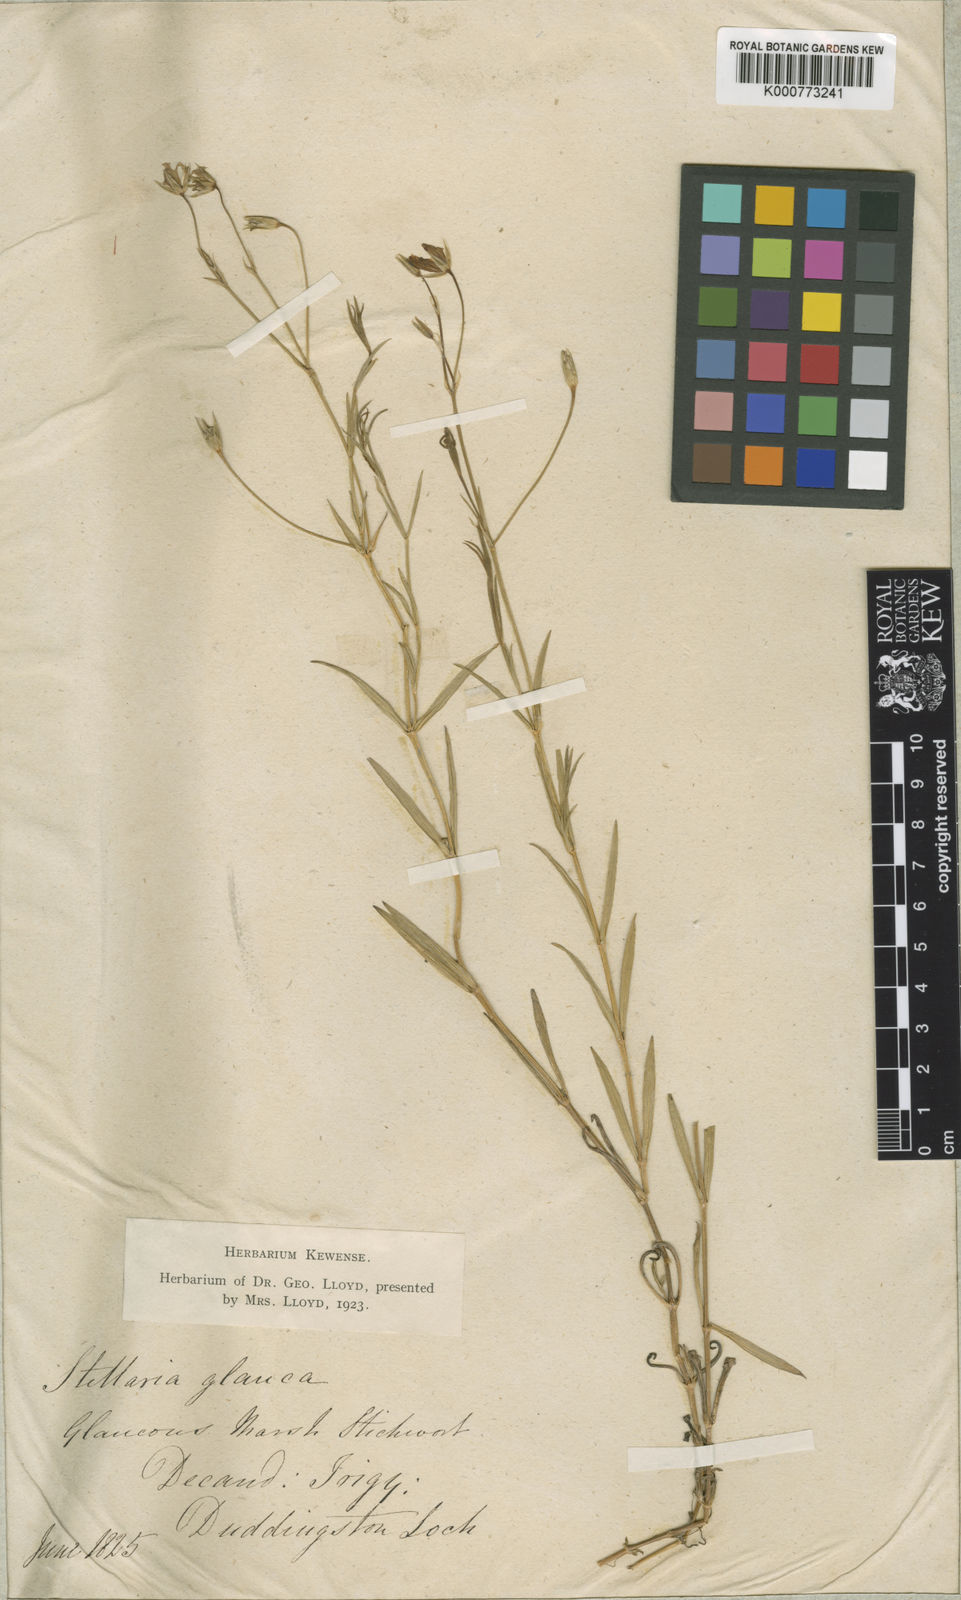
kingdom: Plantae
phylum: Tracheophyta
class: Magnoliopsida
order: Caryophyllales
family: Caryophyllaceae
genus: Stellaria
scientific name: Stellaria
